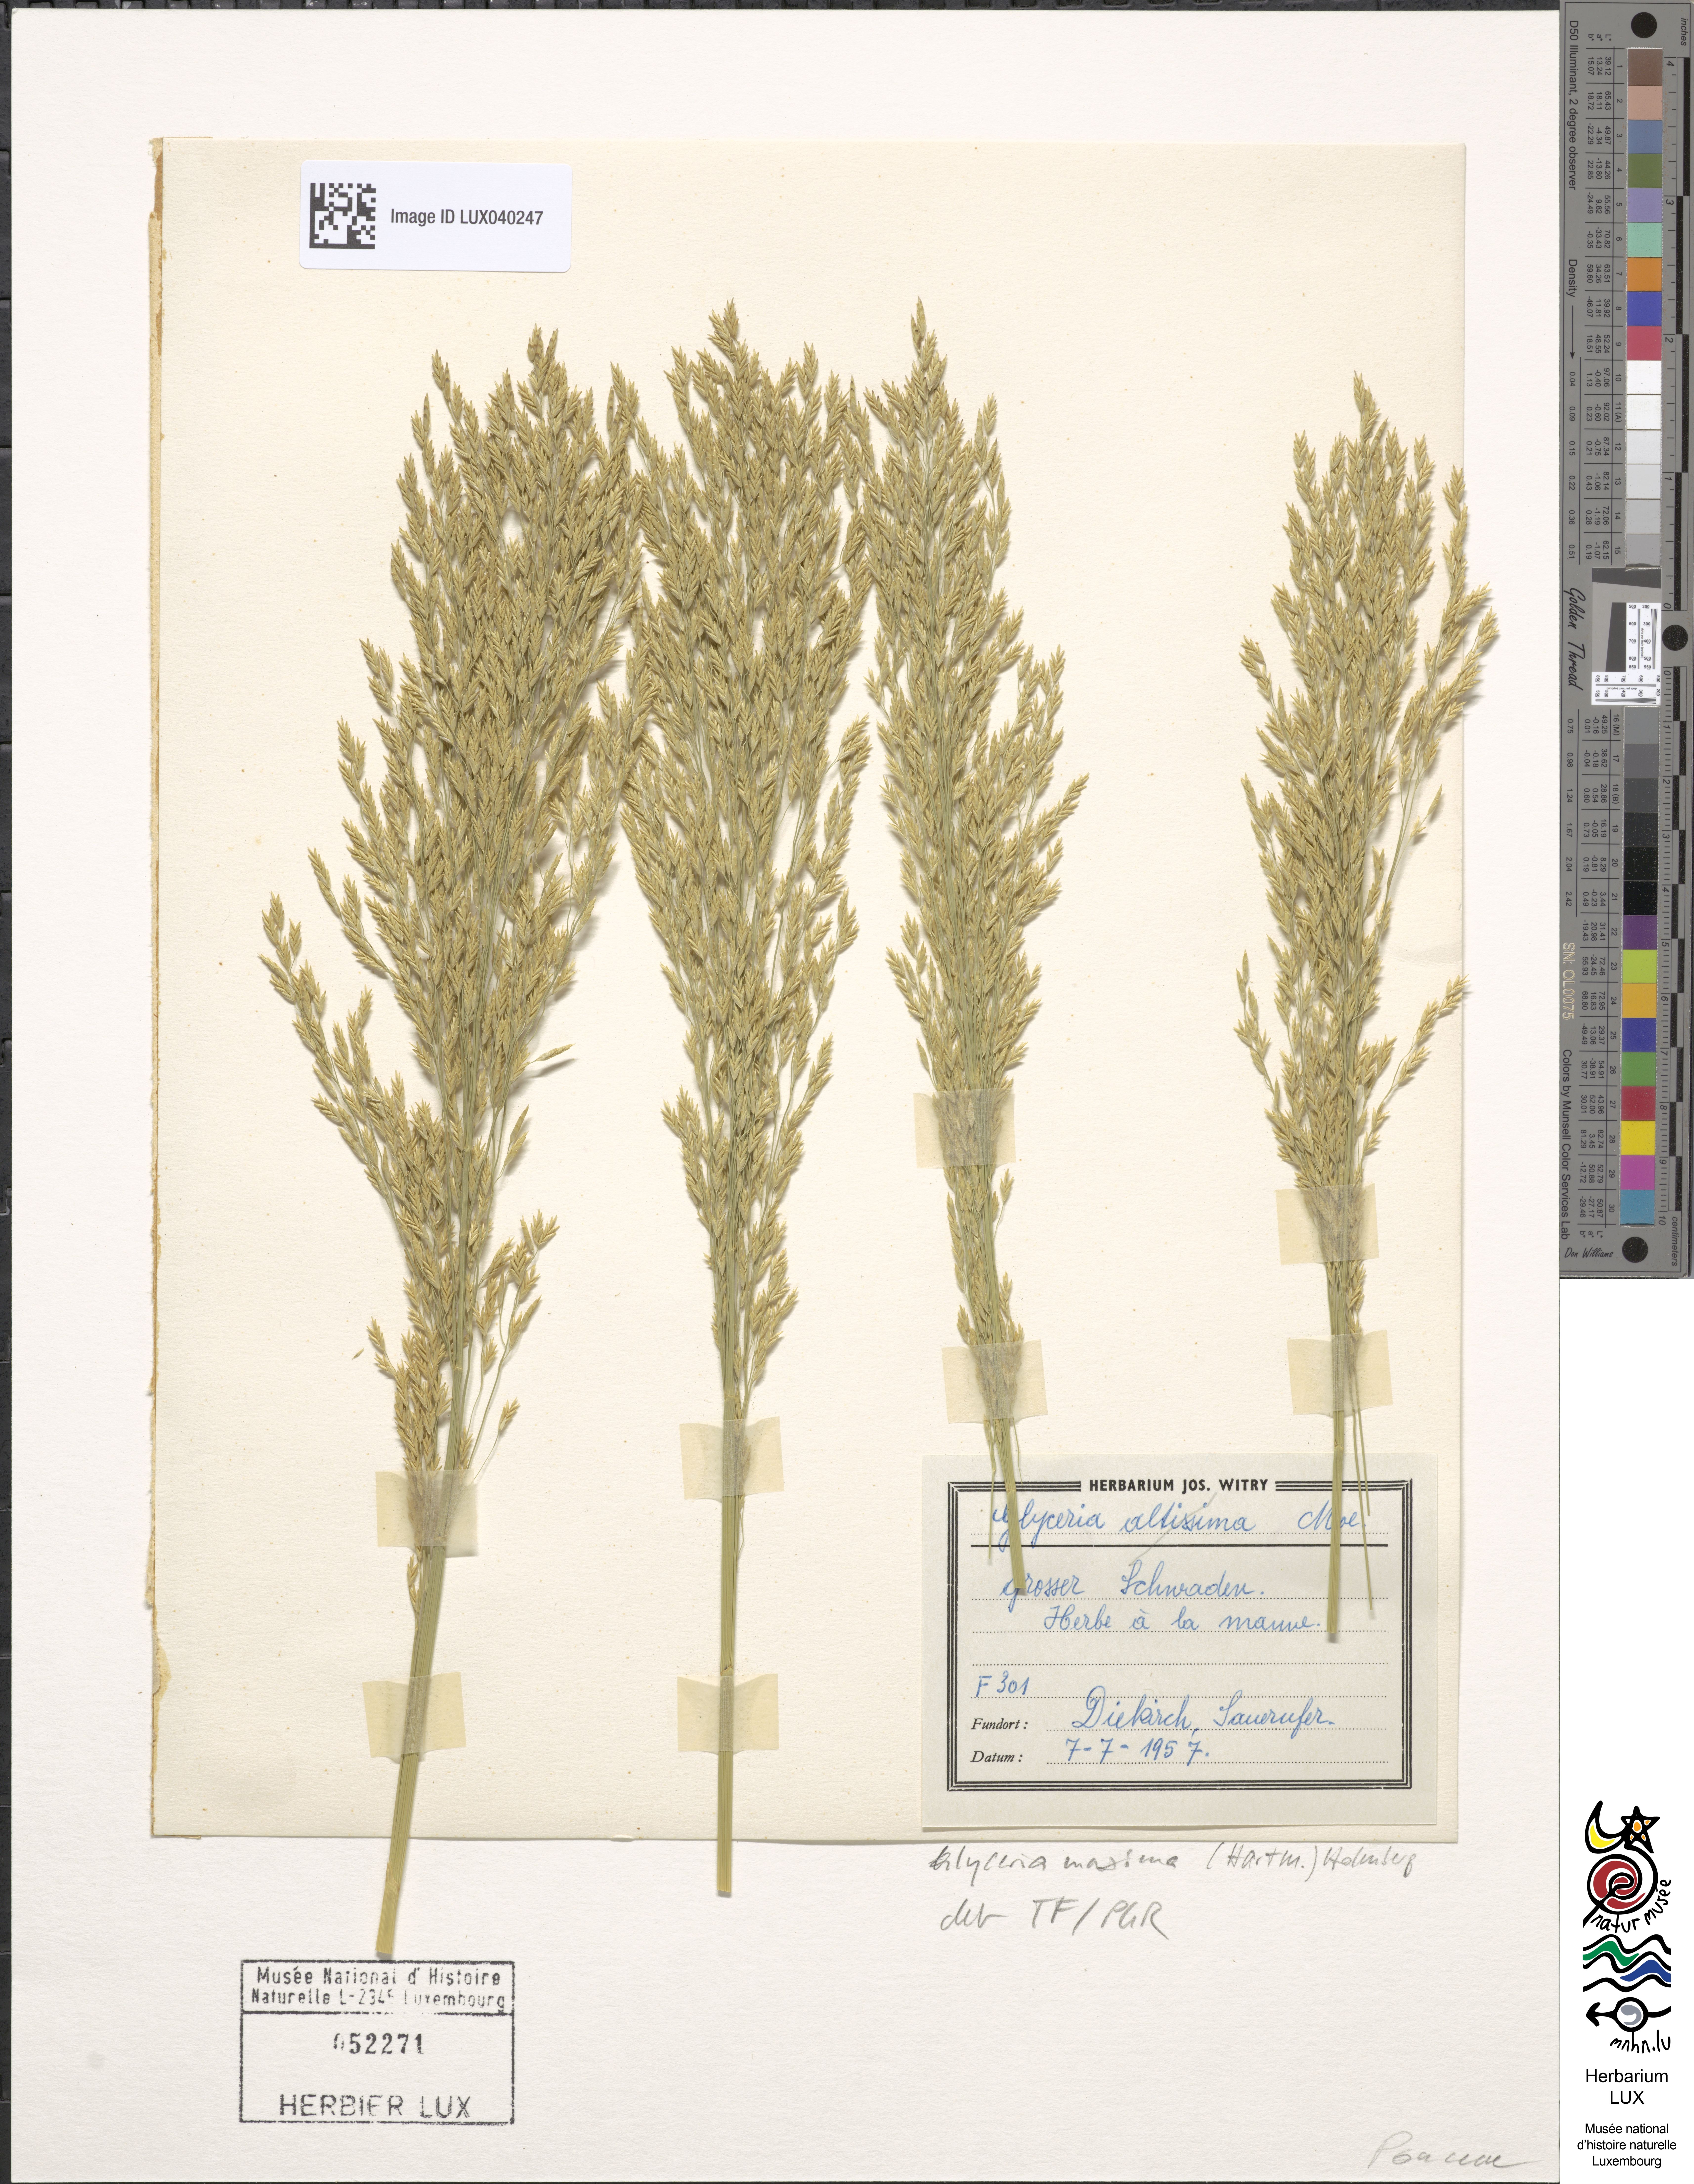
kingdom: Plantae
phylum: Tracheophyta
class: Liliopsida
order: Poales
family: Poaceae
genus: Glyceria
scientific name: Glyceria maxima
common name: Reed mannagrass
